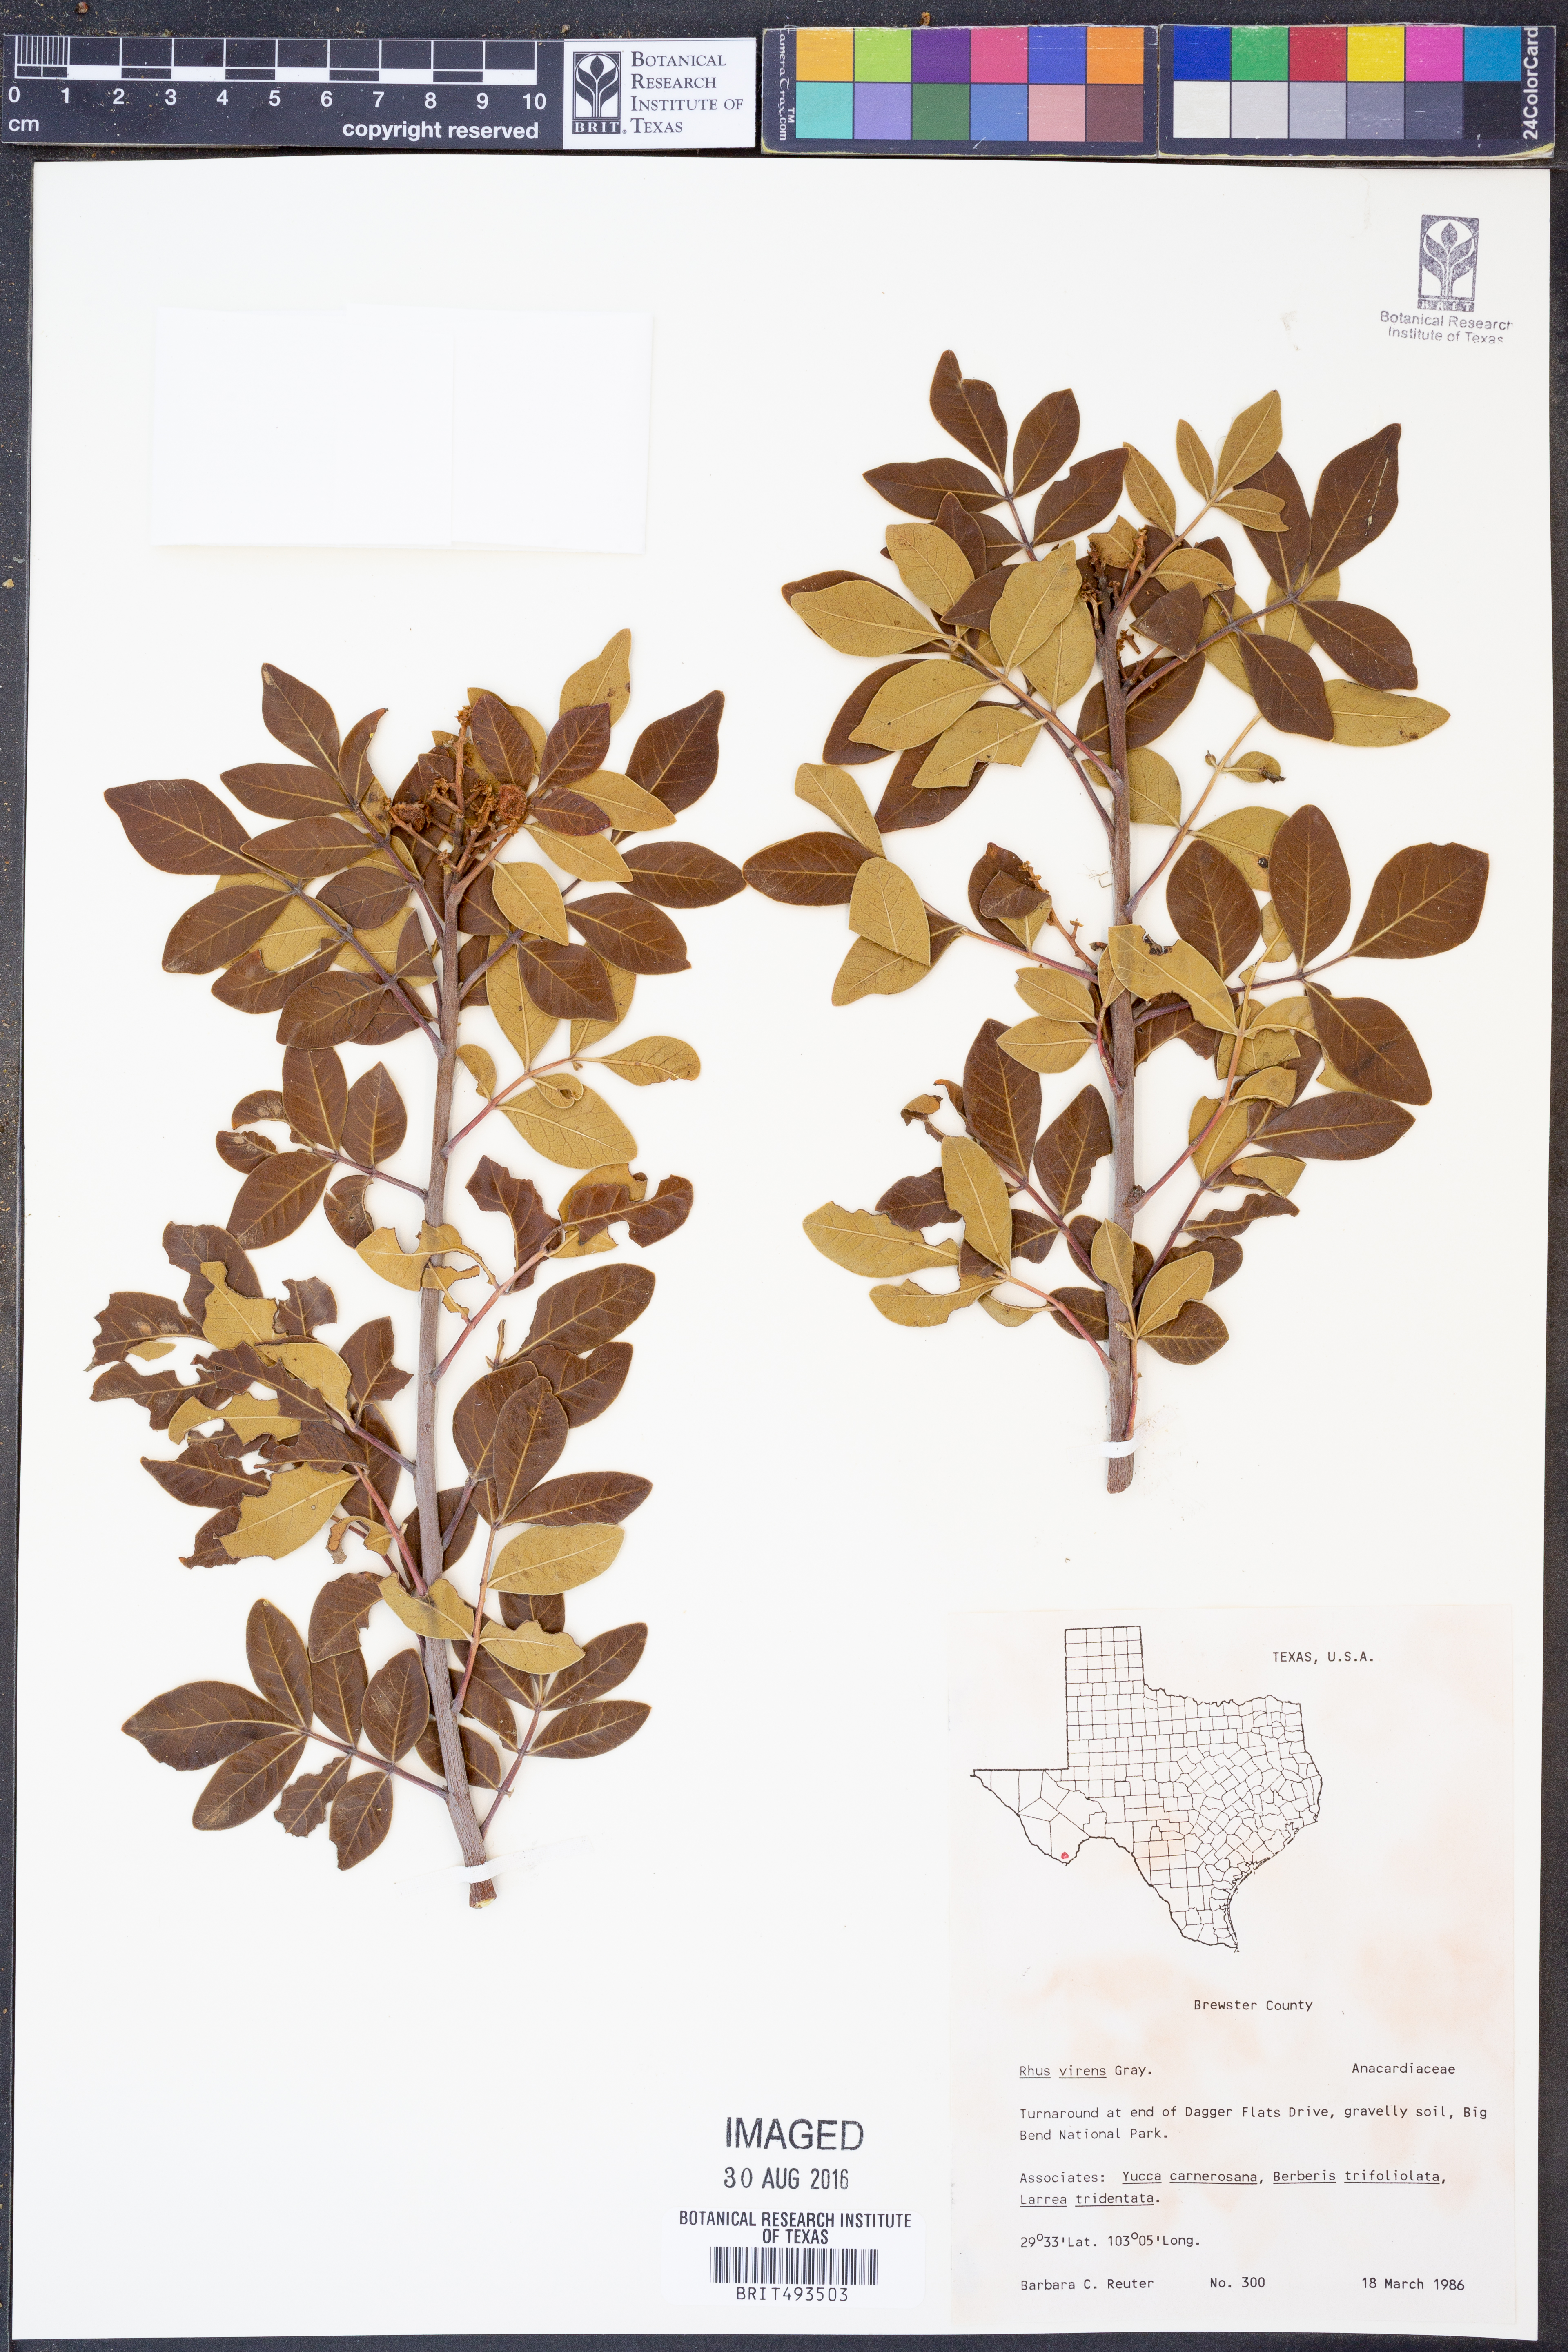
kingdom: Plantae
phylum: Tracheophyta
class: Magnoliopsida
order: Sapindales
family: Anacardiaceae
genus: Rhus
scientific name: Rhus virens
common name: Evergreen sumac
